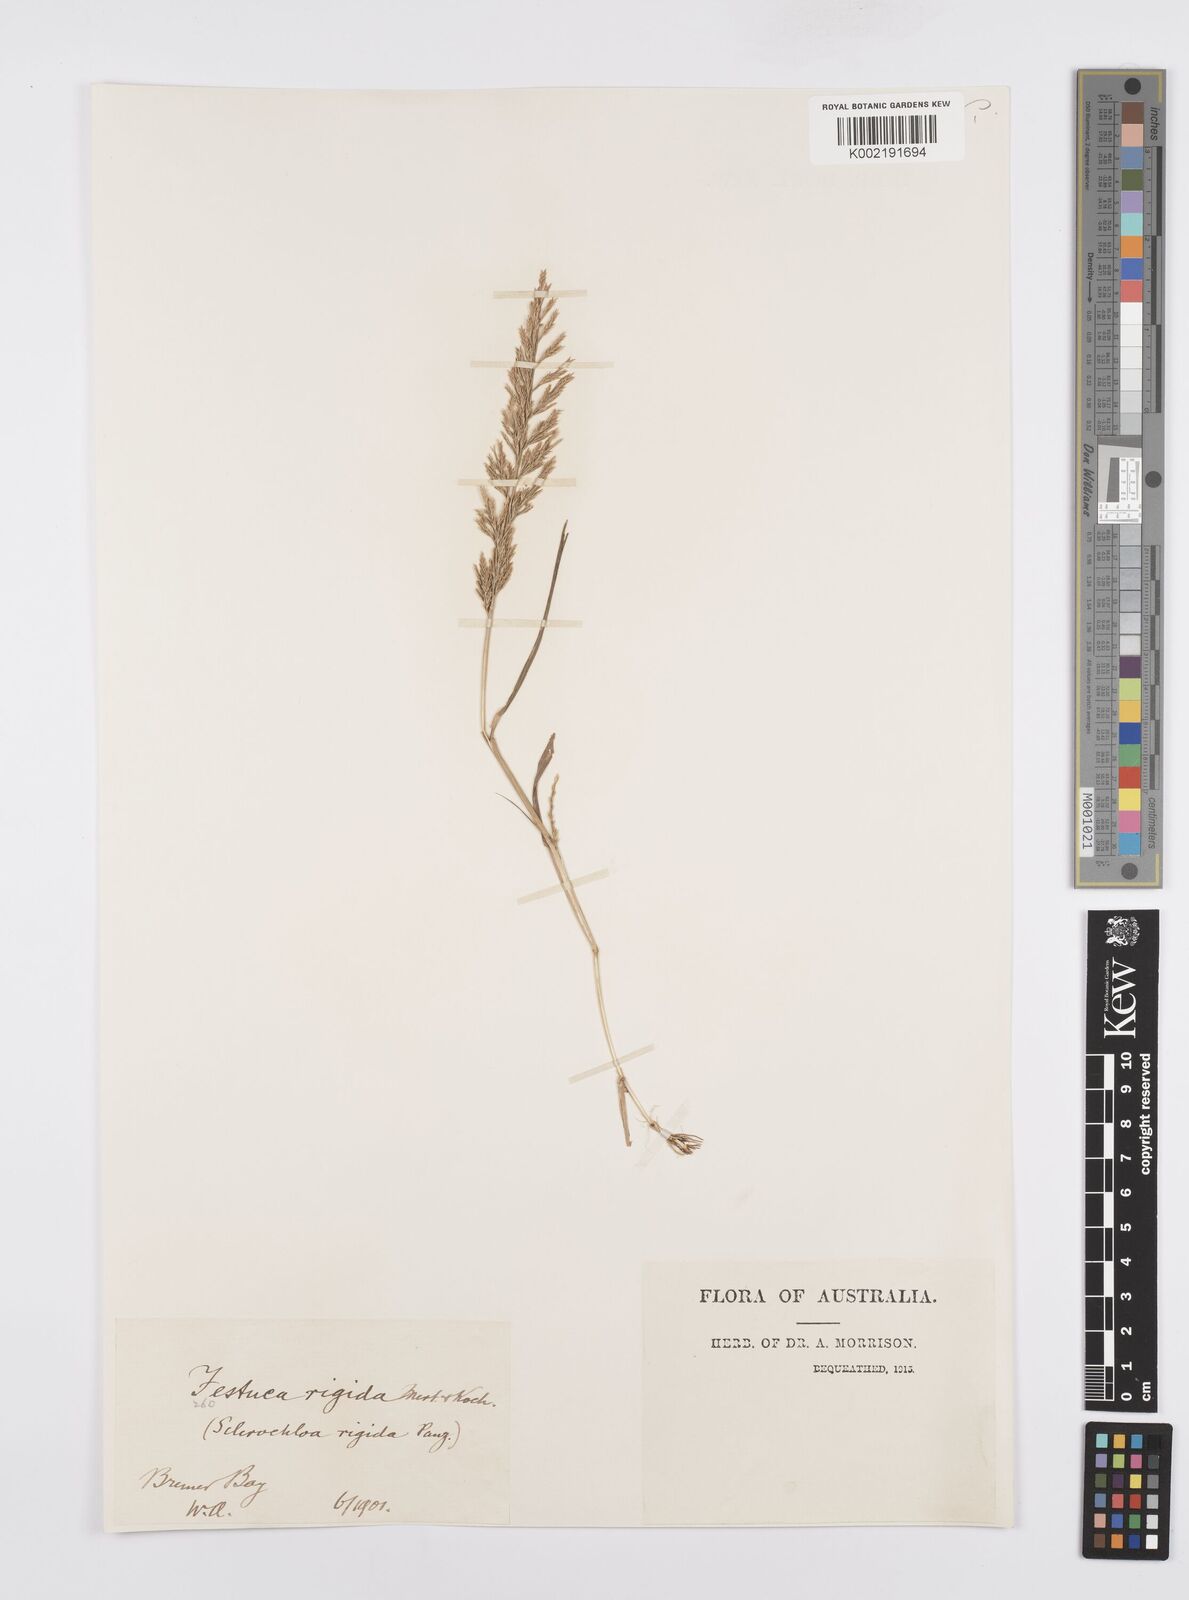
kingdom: Plantae
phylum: Tracheophyta
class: Liliopsida
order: Poales
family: Poaceae
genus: Catapodium
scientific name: Catapodium rigidum
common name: Fern-grass
